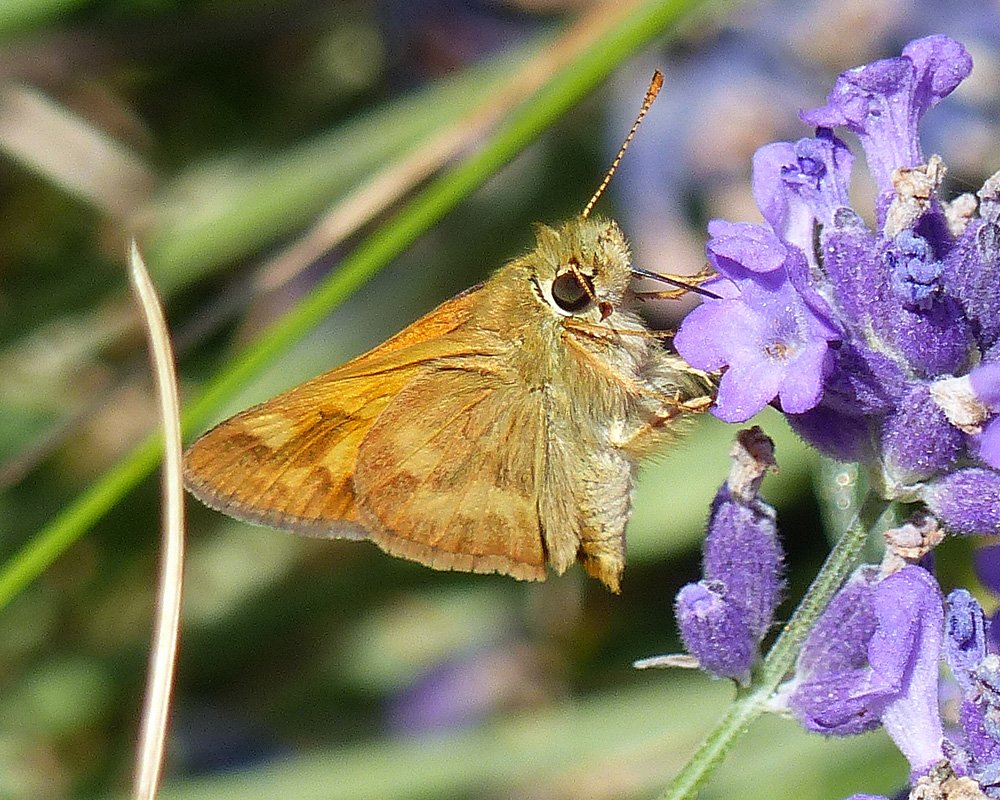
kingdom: Animalia
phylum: Arthropoda
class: Insecta
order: Lepidoptera
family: Hesperiidae
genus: Ochlodes
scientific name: Ochlodes sylvanoides
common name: Woodland Skipper
